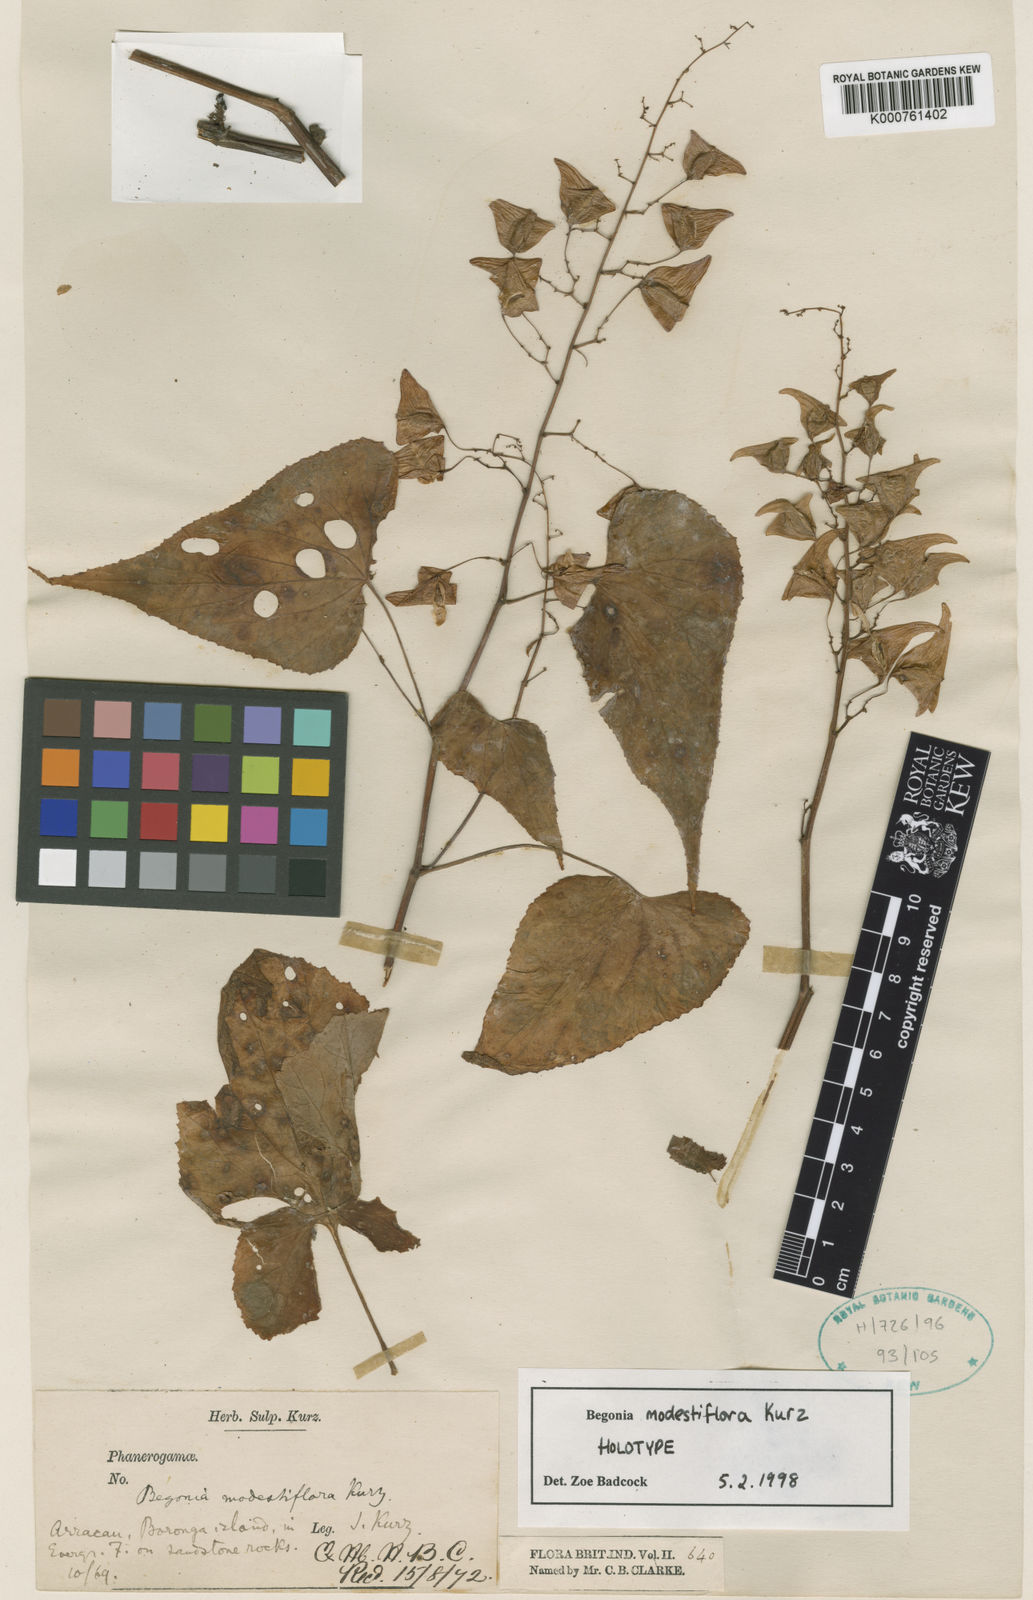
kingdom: Plantae
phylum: Tracheophyta
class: Magnoliopsida
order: Cucurbitales
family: Begoniaceae
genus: Begonia
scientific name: Begonia modestiflora
